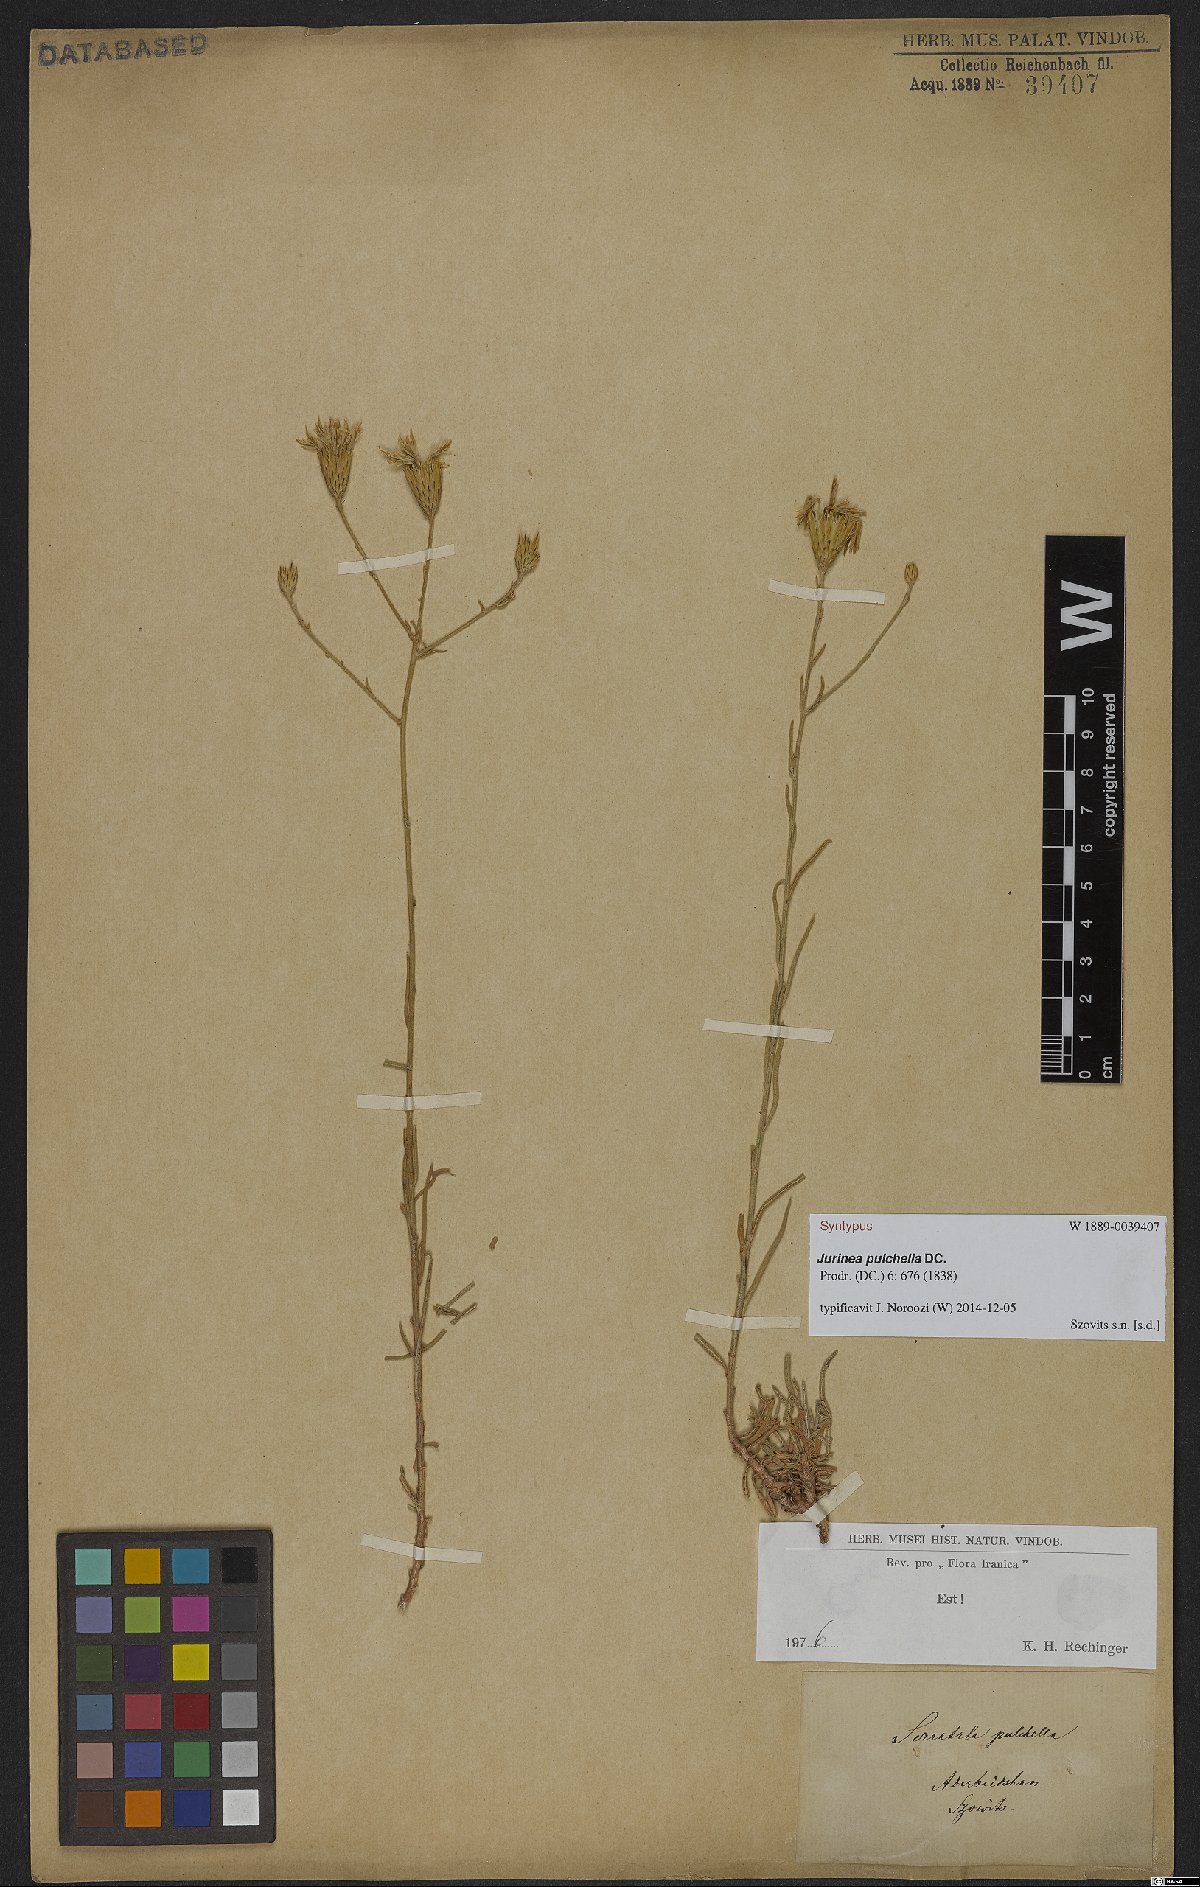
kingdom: Plantae
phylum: Tracheophyta
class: Magnoliopsida
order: Asterales
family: Asteraceae
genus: Jurinea
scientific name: Jurinea pulchella
